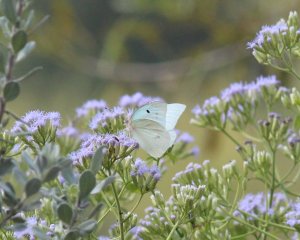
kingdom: Animalia
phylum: Arthropoda
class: Insecta
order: Lepidoptera
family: Pieridae
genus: Ganyra
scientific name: Ganyra josephina
